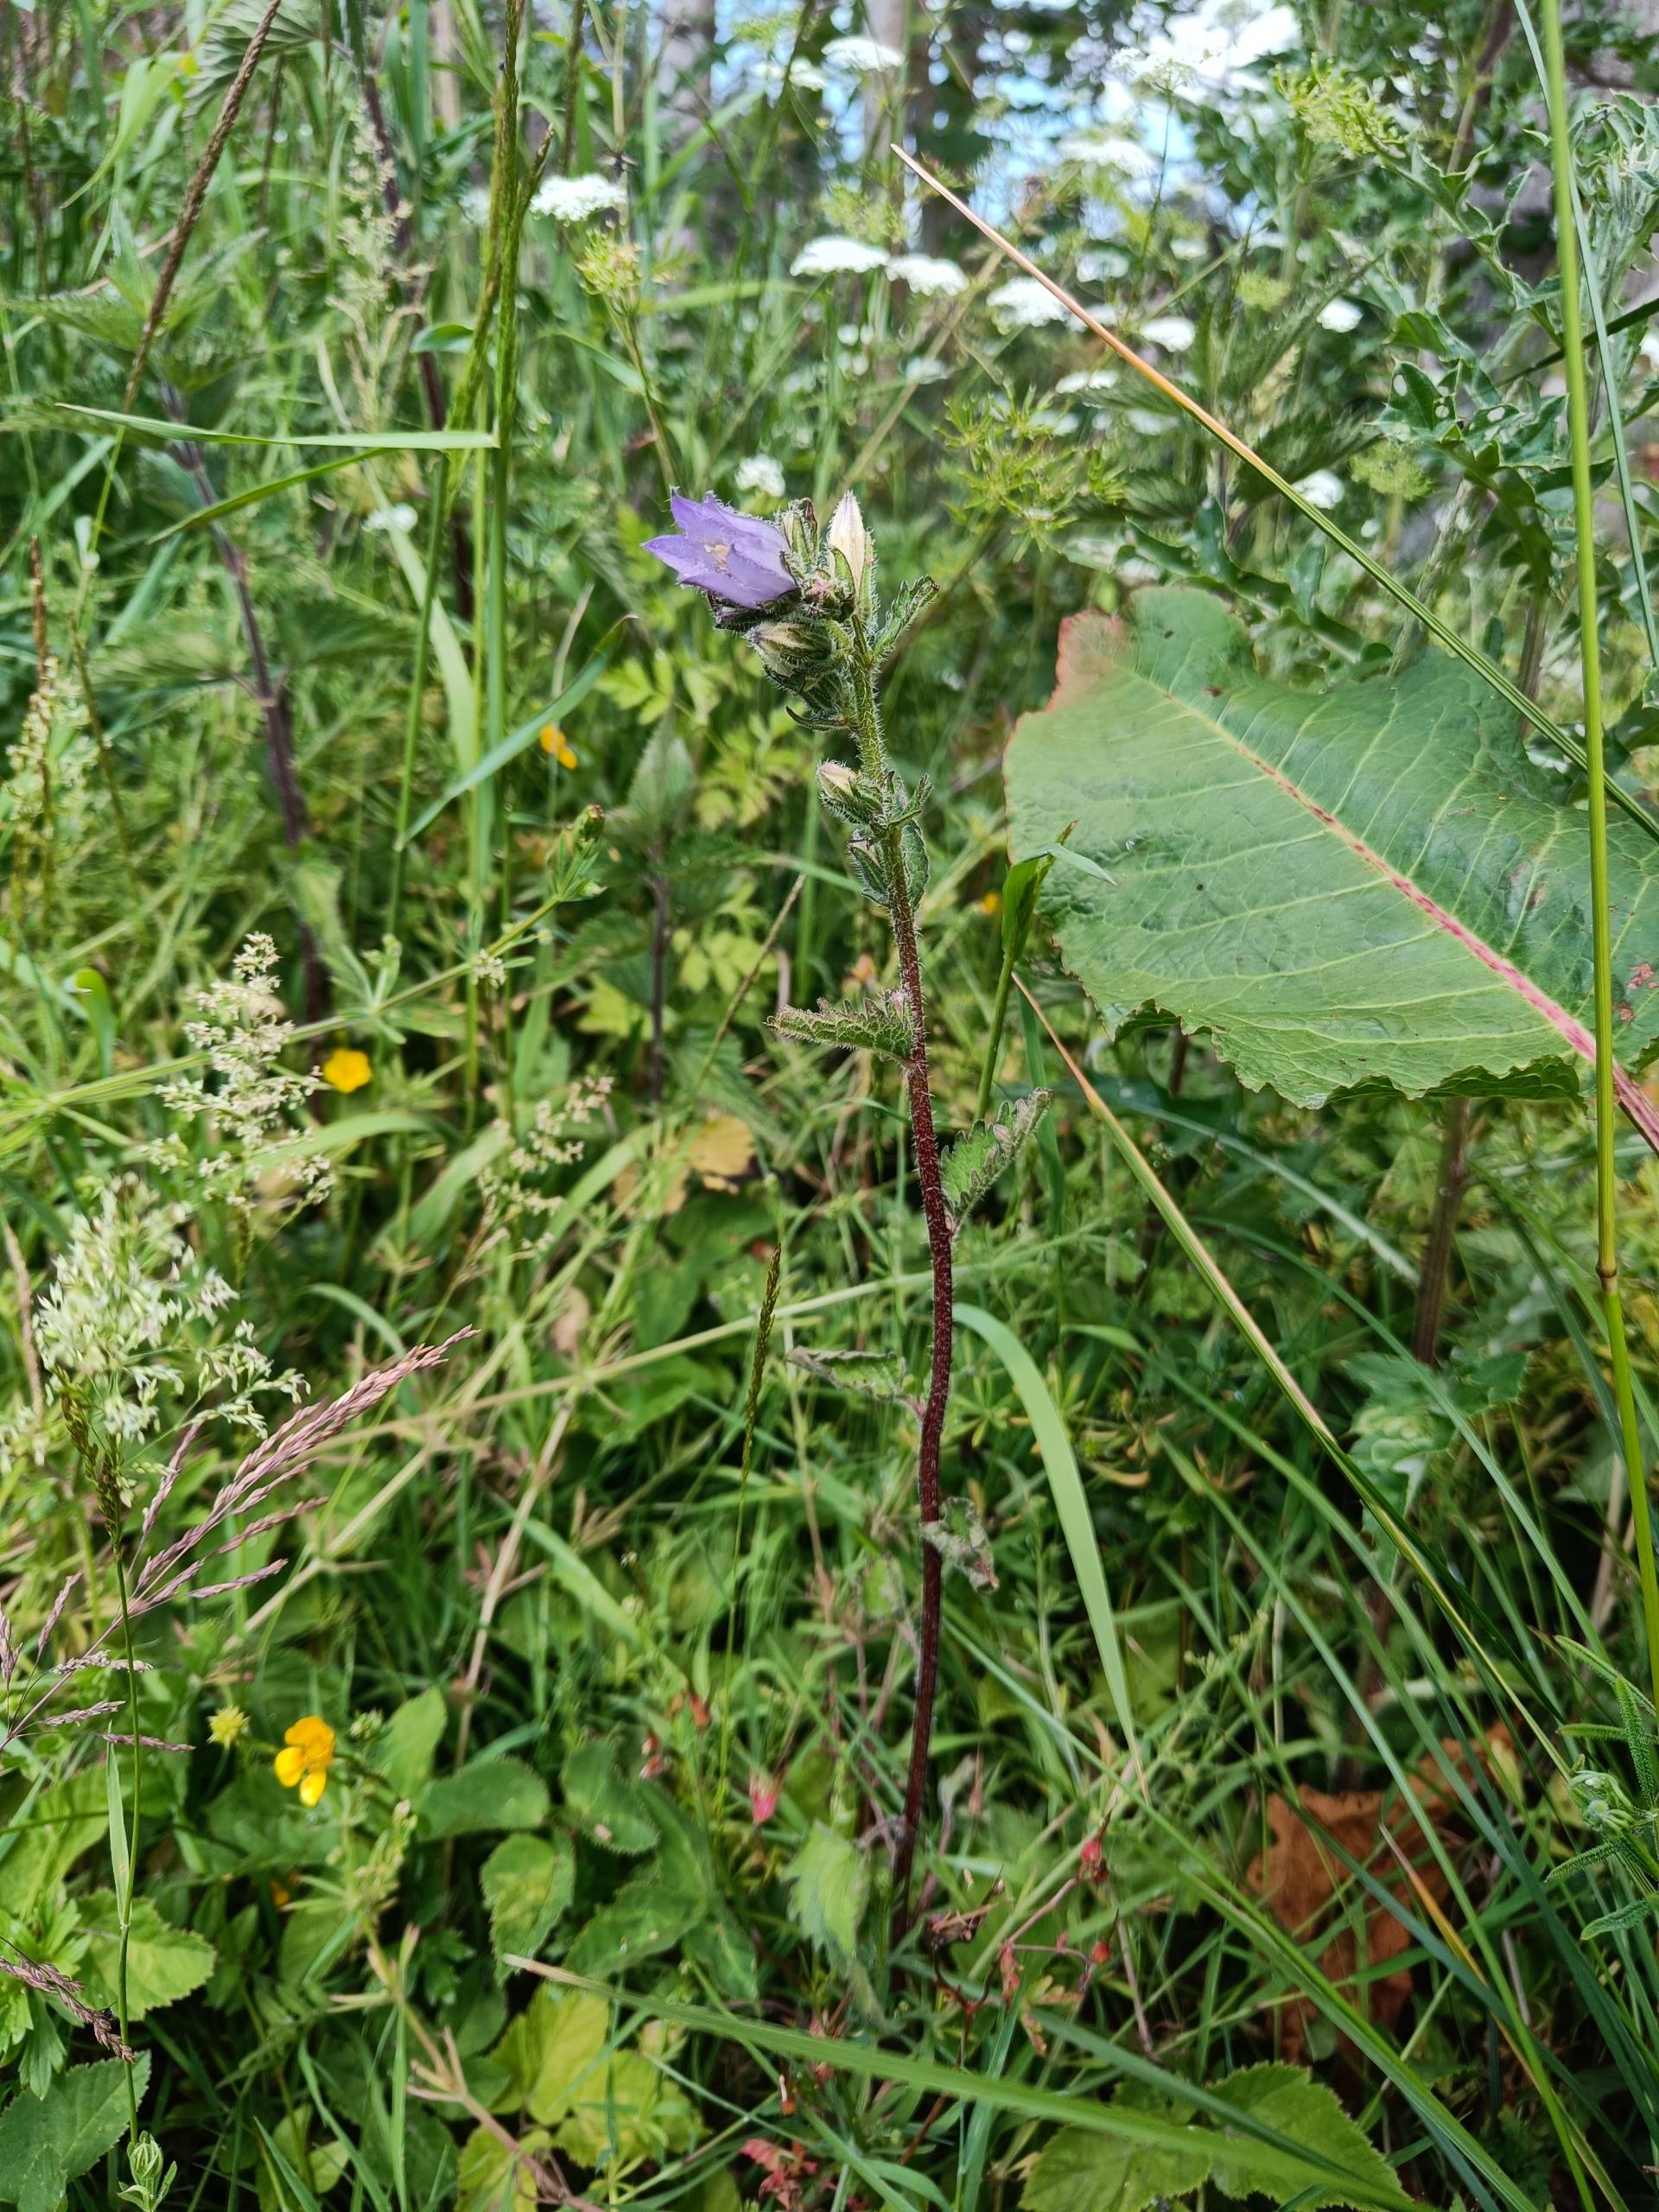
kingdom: Plantae
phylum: Tracheophyta
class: Magnoliopsida
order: Asterales
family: Campanulaceae
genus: Campanula
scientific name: Campanula trachelium
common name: Nælde-klokke
